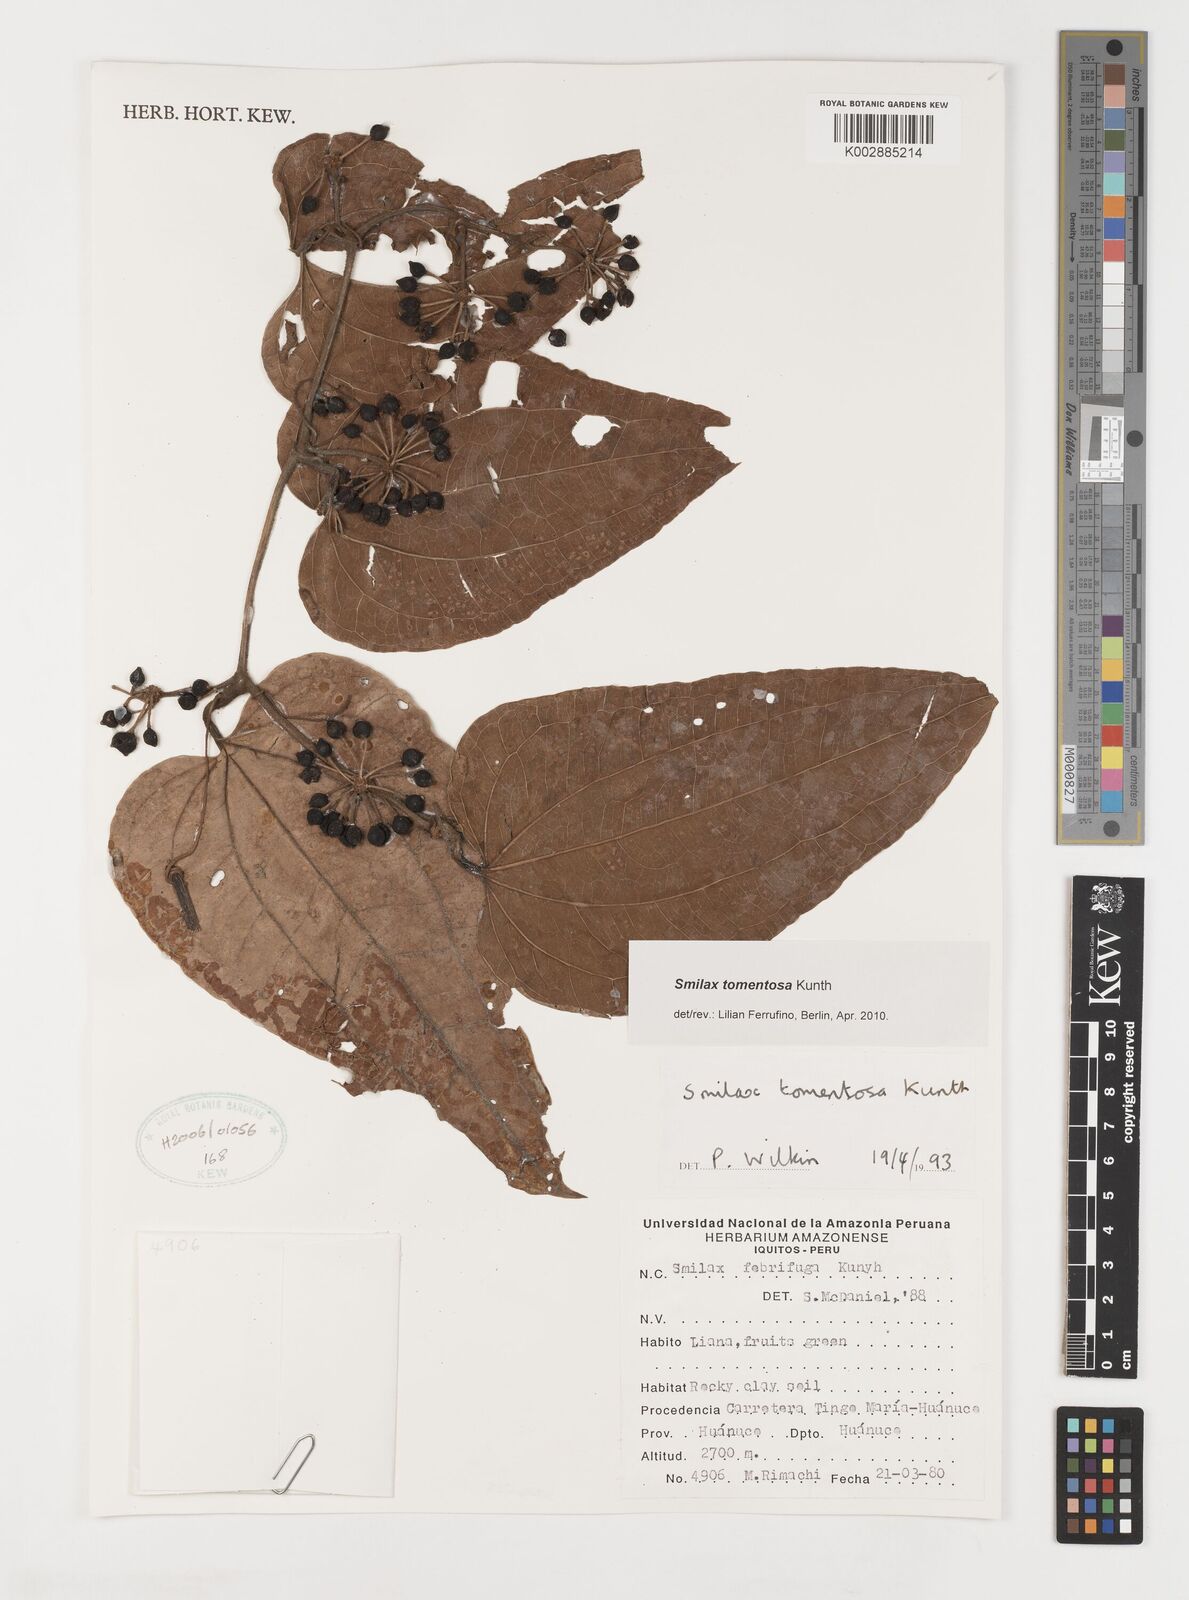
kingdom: Plantae
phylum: Tracheophyta
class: Liliopsida
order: Liliales
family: Smilacaceae
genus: Smilax
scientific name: Smilax tomentosa
